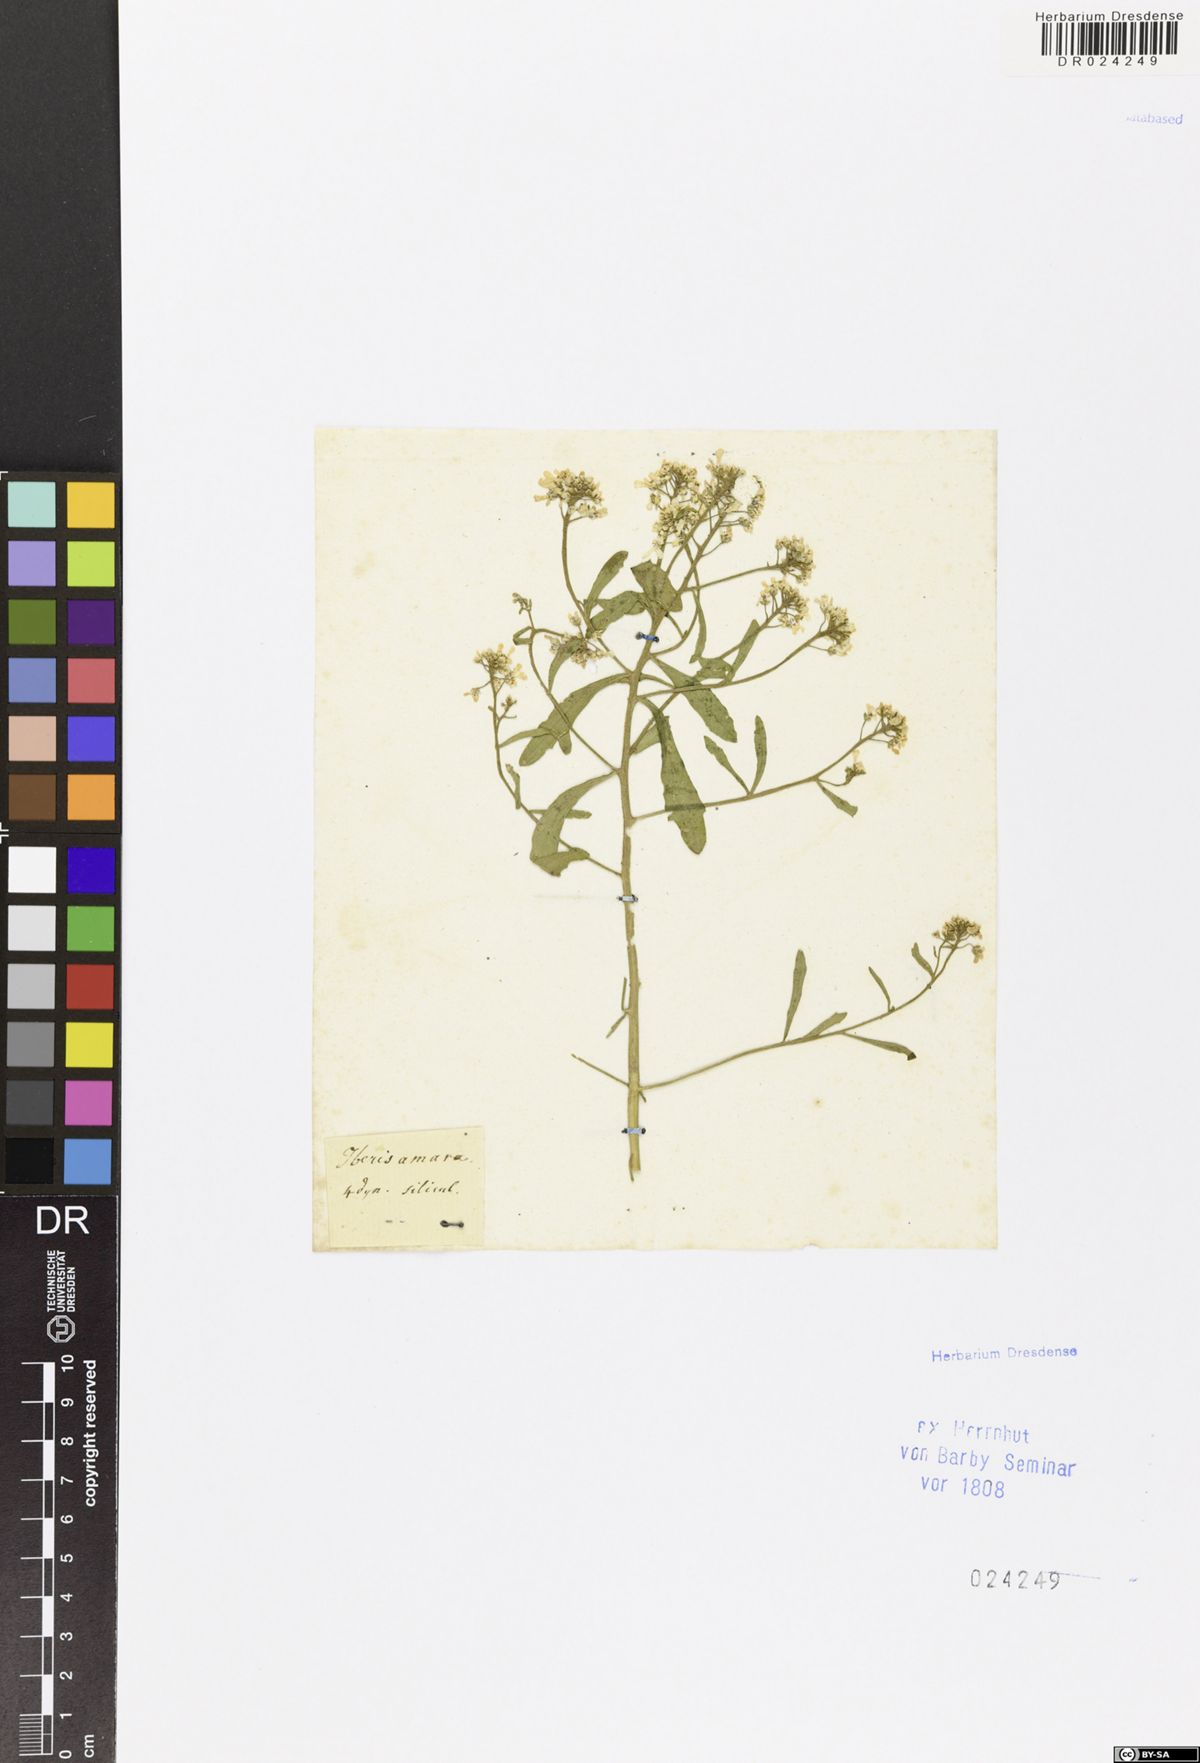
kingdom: Plantae
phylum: Tracheophyta
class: Magnoliopsida
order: Brassicales
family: Brassicaceae
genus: Iberis
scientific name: Iberis amara
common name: Annual candytuft
